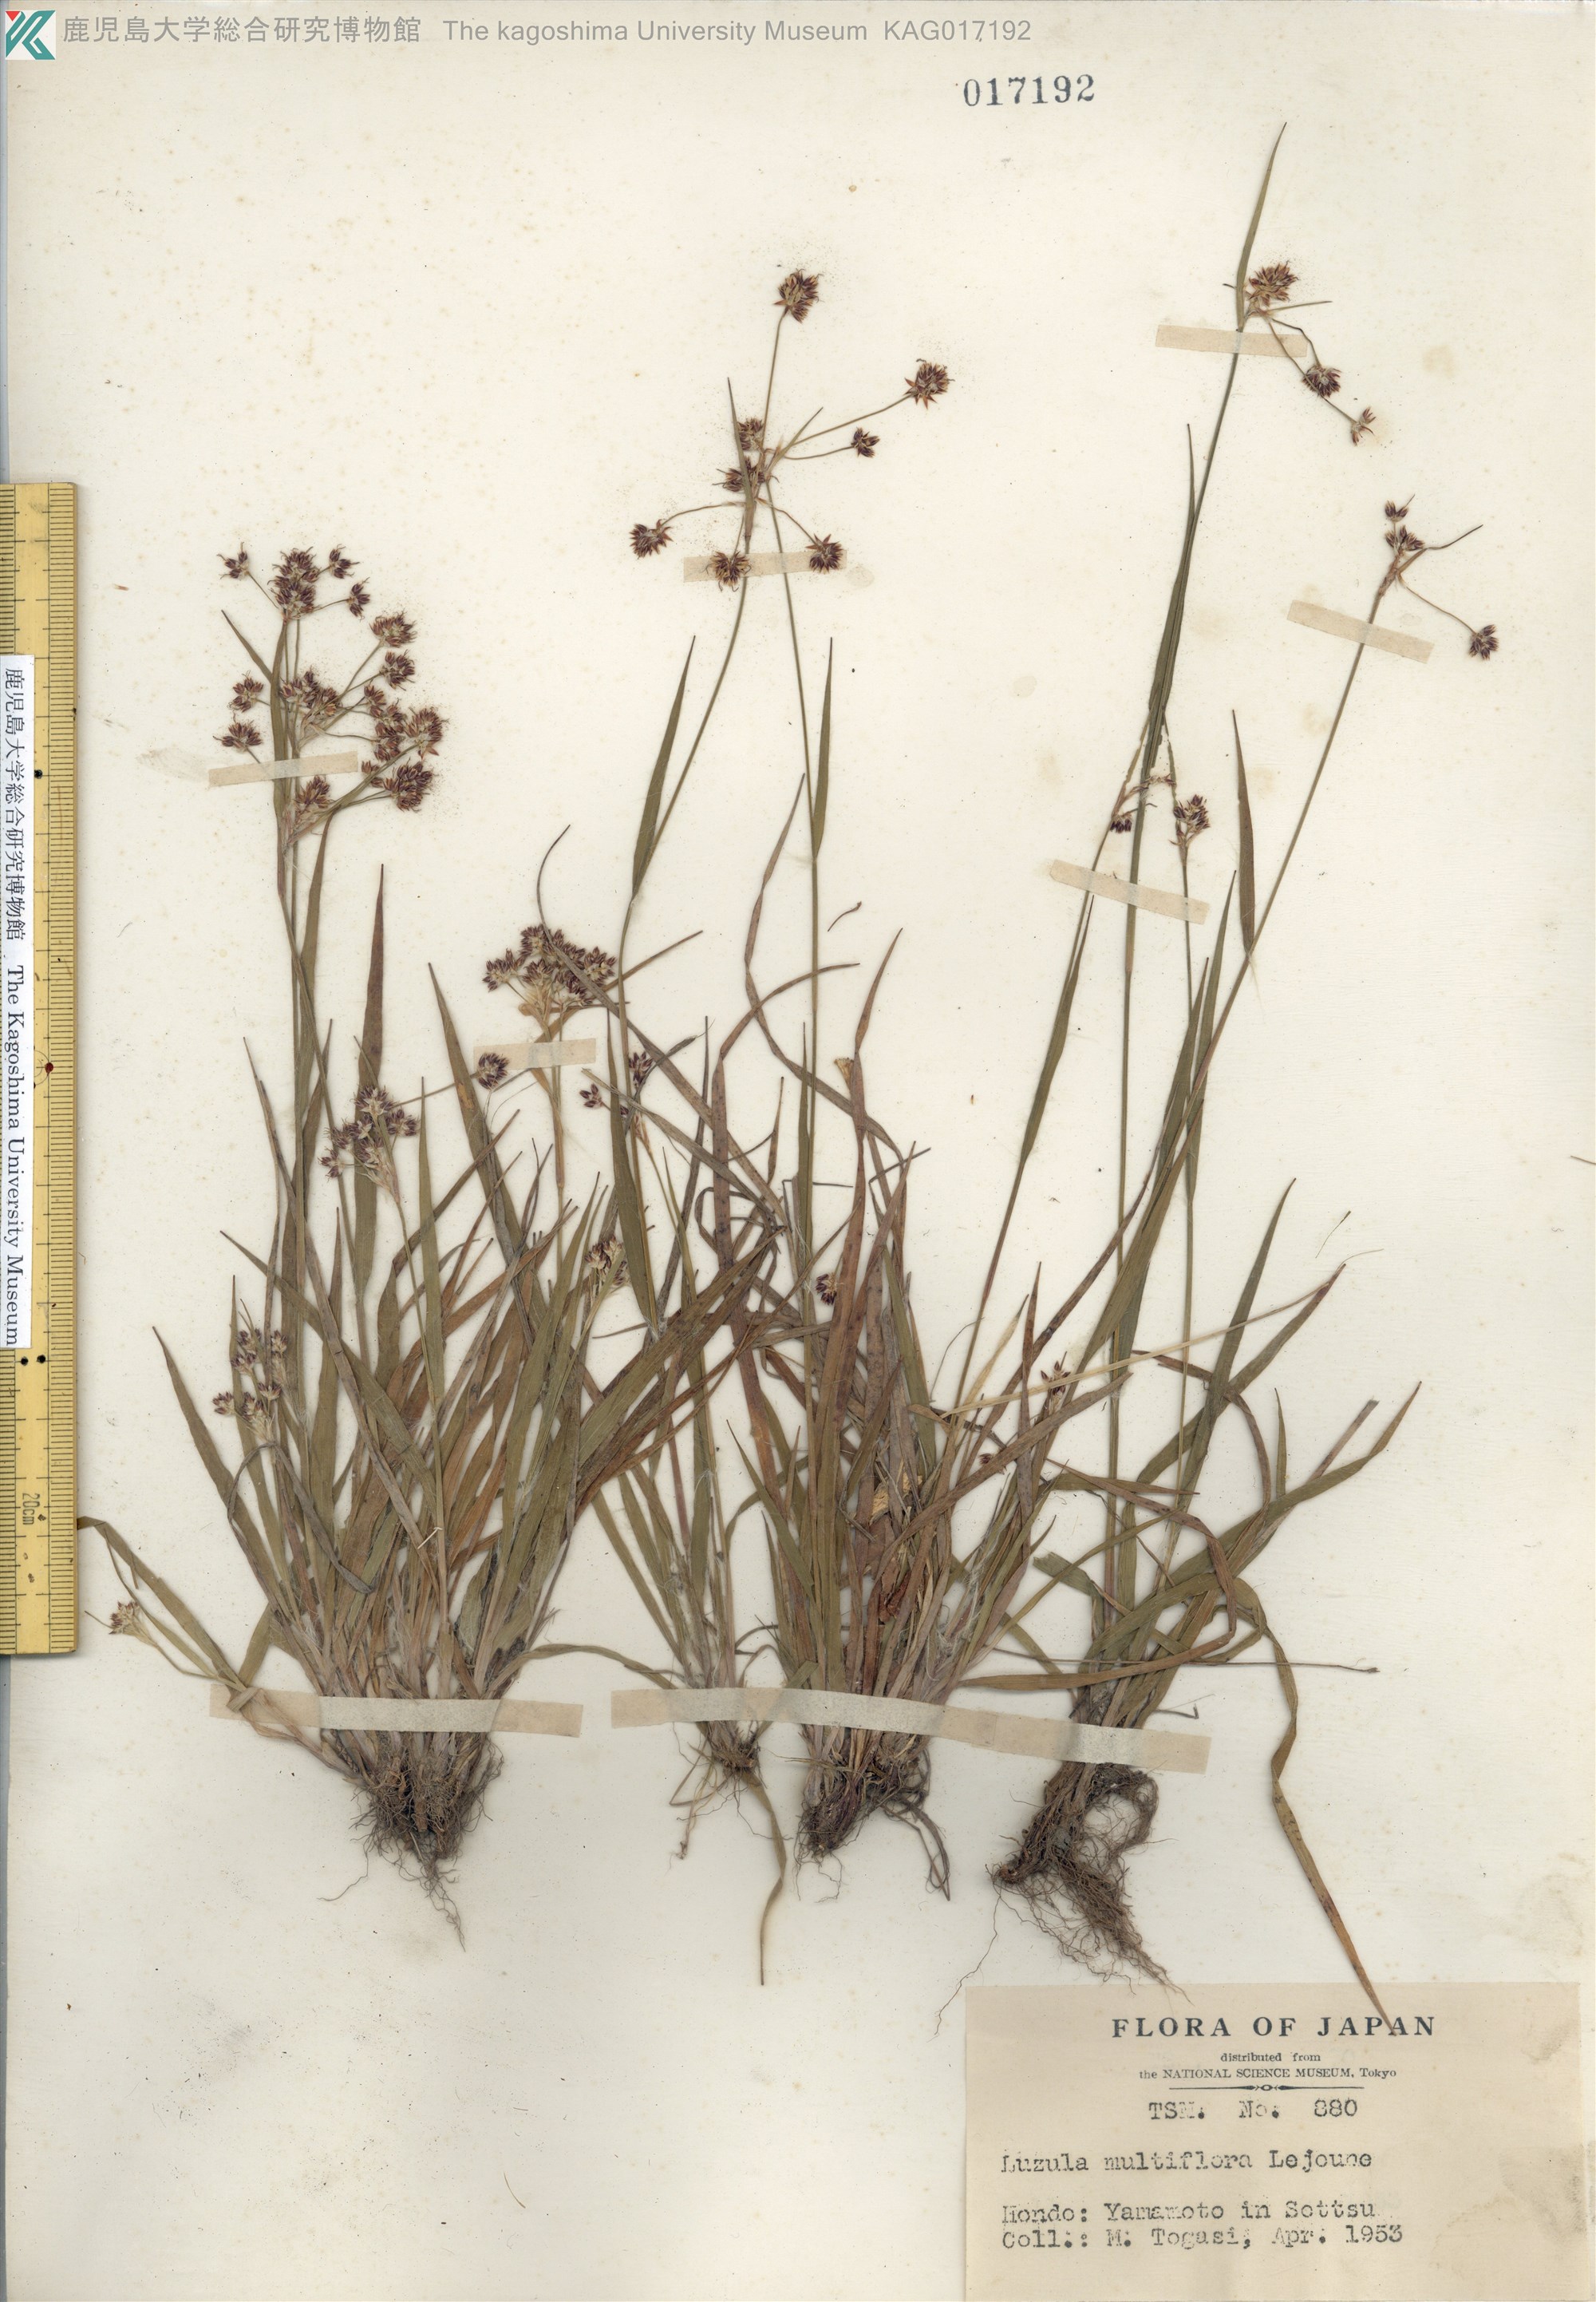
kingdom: Plantae
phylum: Tracheophyta
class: Liliopsida
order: Poales
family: Juncaceae
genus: Luzula
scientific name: Luzula multiflora
